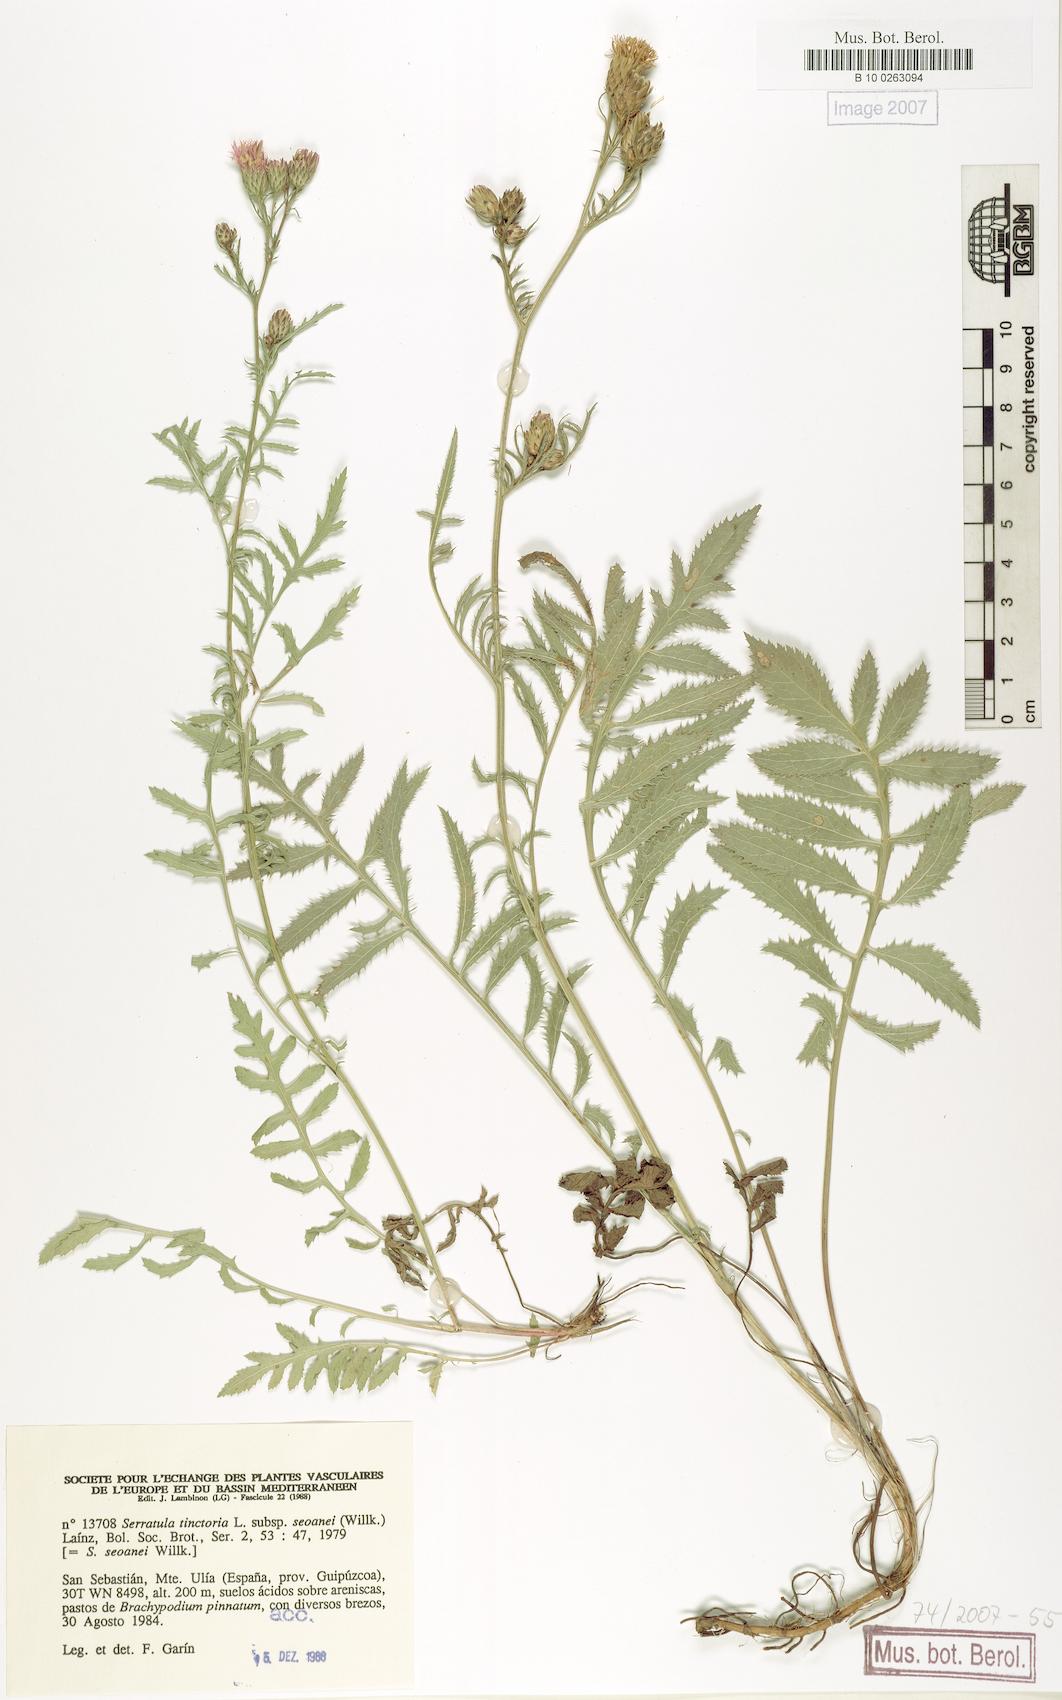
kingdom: Plantae
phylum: Tracheophyta
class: Magnoliopsida
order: Asterales
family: Asteraceae
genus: Serratula
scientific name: Serratula tinctoria
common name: Saw-wort
